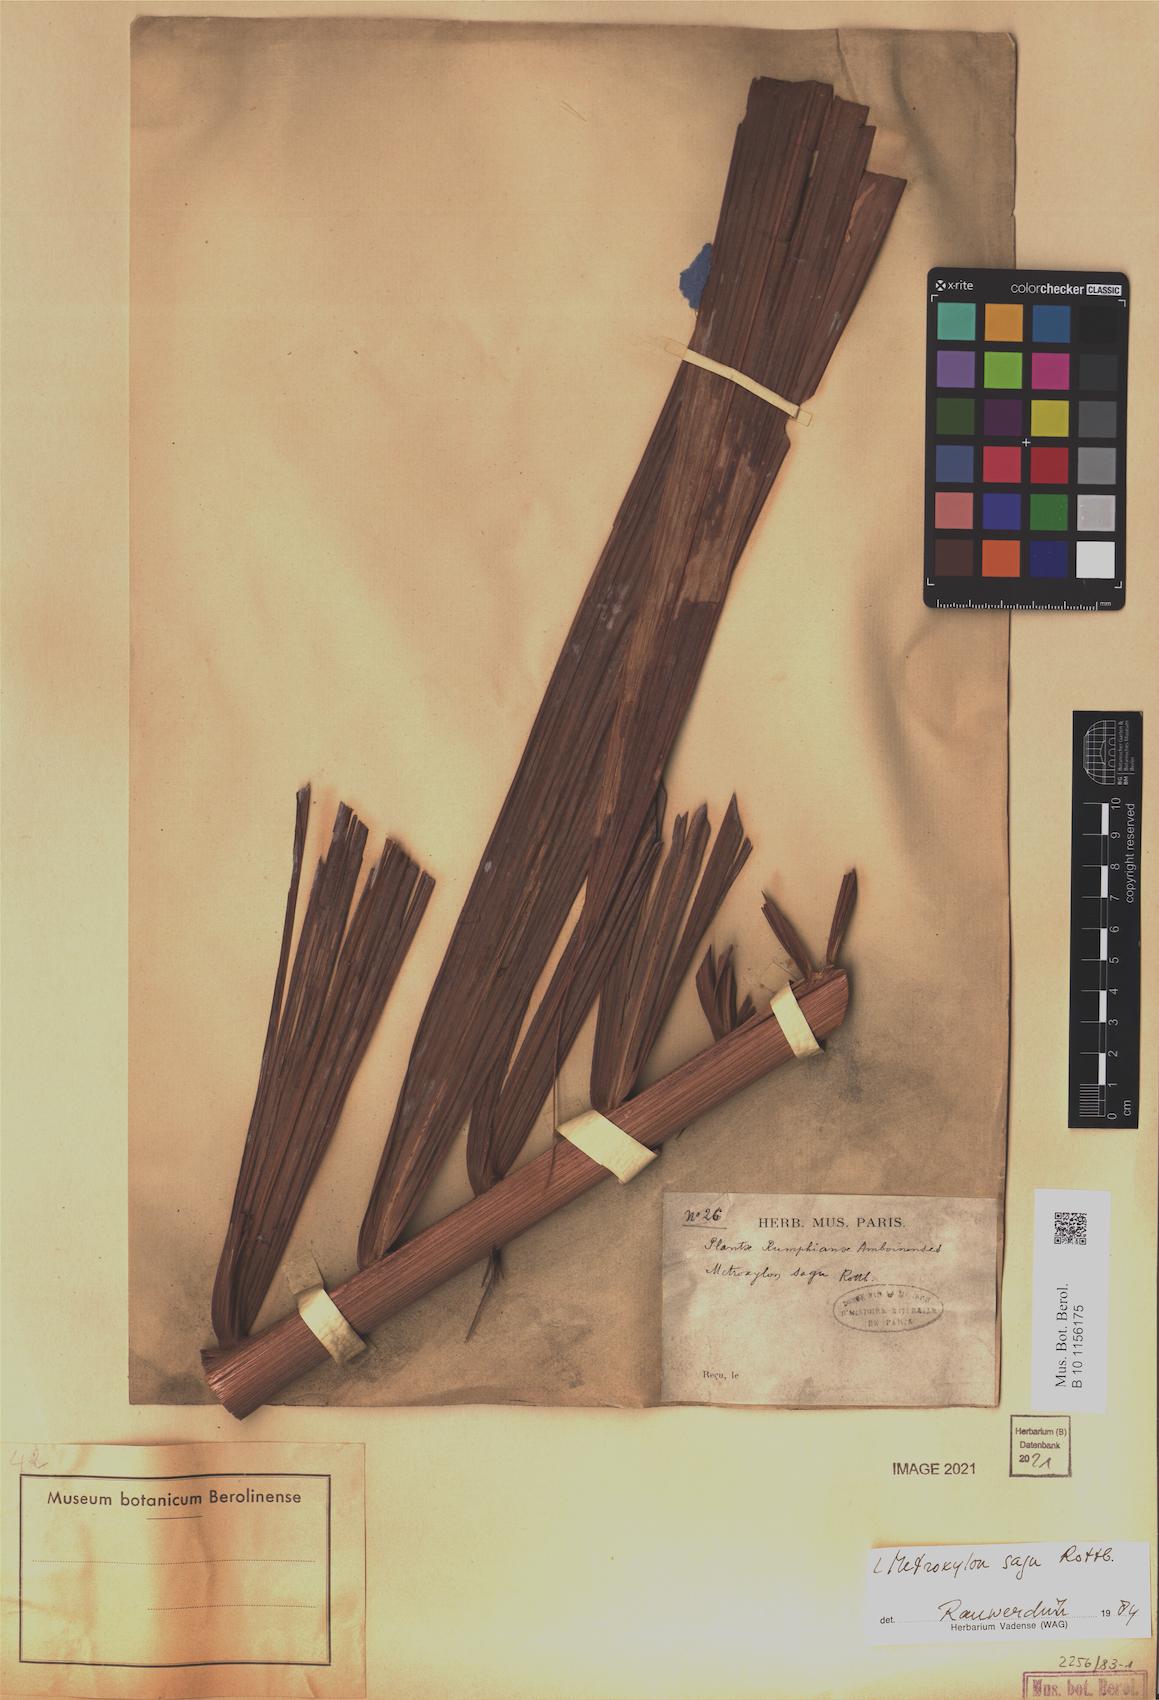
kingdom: Plantae
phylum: Tracheophyta
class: Liliopsida
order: Arecales
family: Arecaceae
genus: Metroxylon
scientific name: Metroxylon sagu
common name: Sago palm
